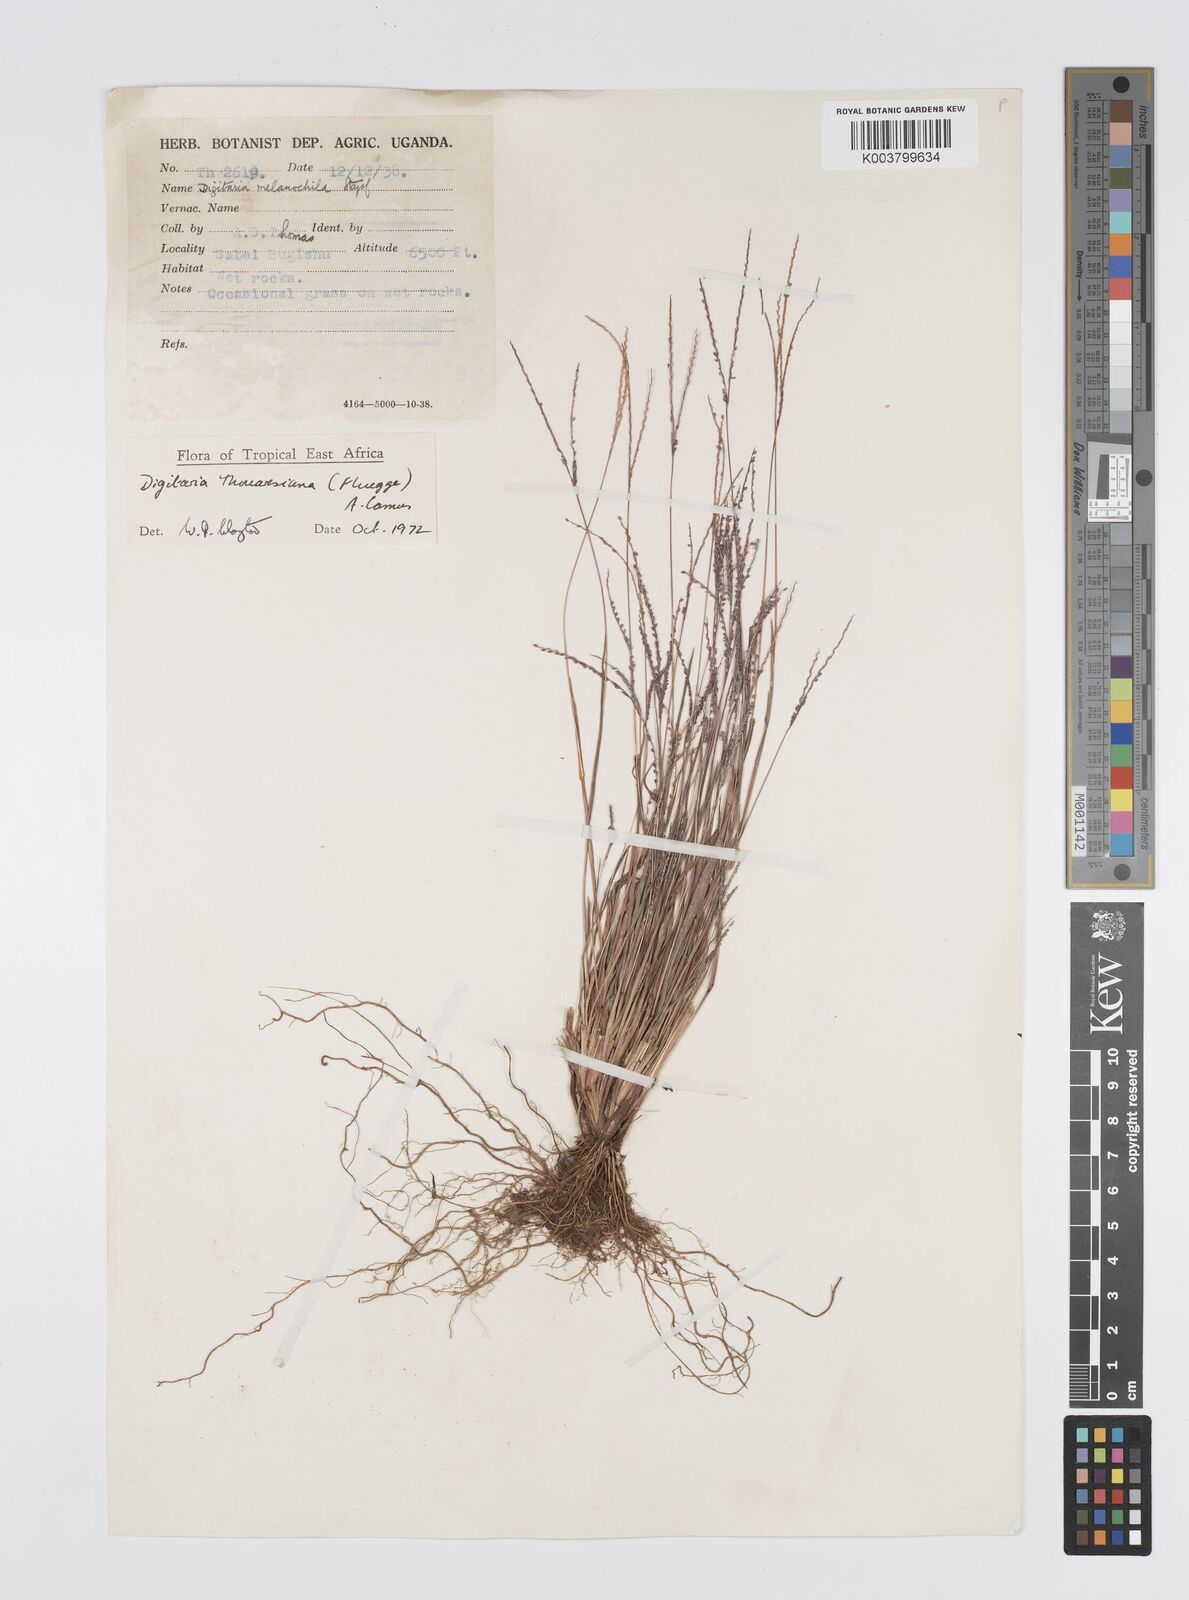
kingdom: Plantae
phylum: Tracheophyta
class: Liliopsida
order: Poales
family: Poaceae
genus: Digitaria
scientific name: Digitaria thouarsiana
